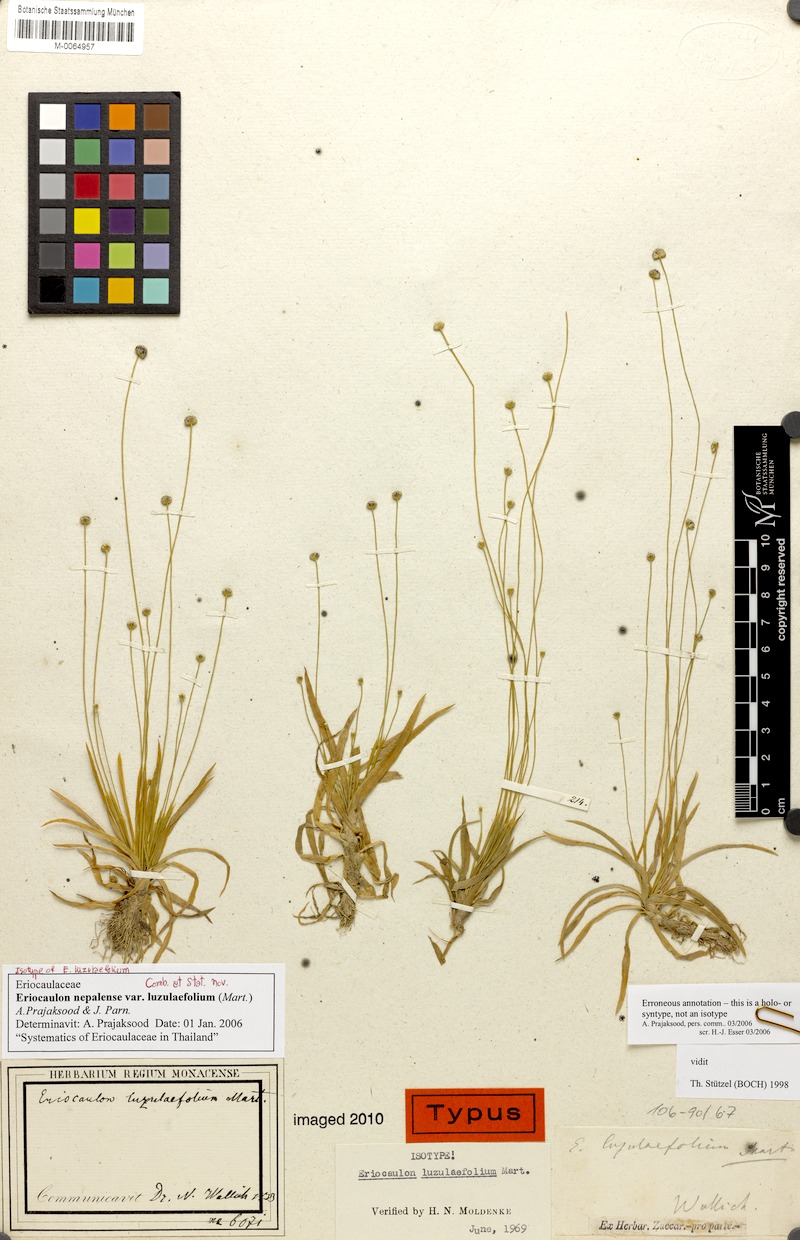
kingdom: Plantae
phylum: Tracheophyta
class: Liliopsida
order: Poales
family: Eriocaulaceae
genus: Eriocaulon
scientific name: Eriocaulon nepalense
